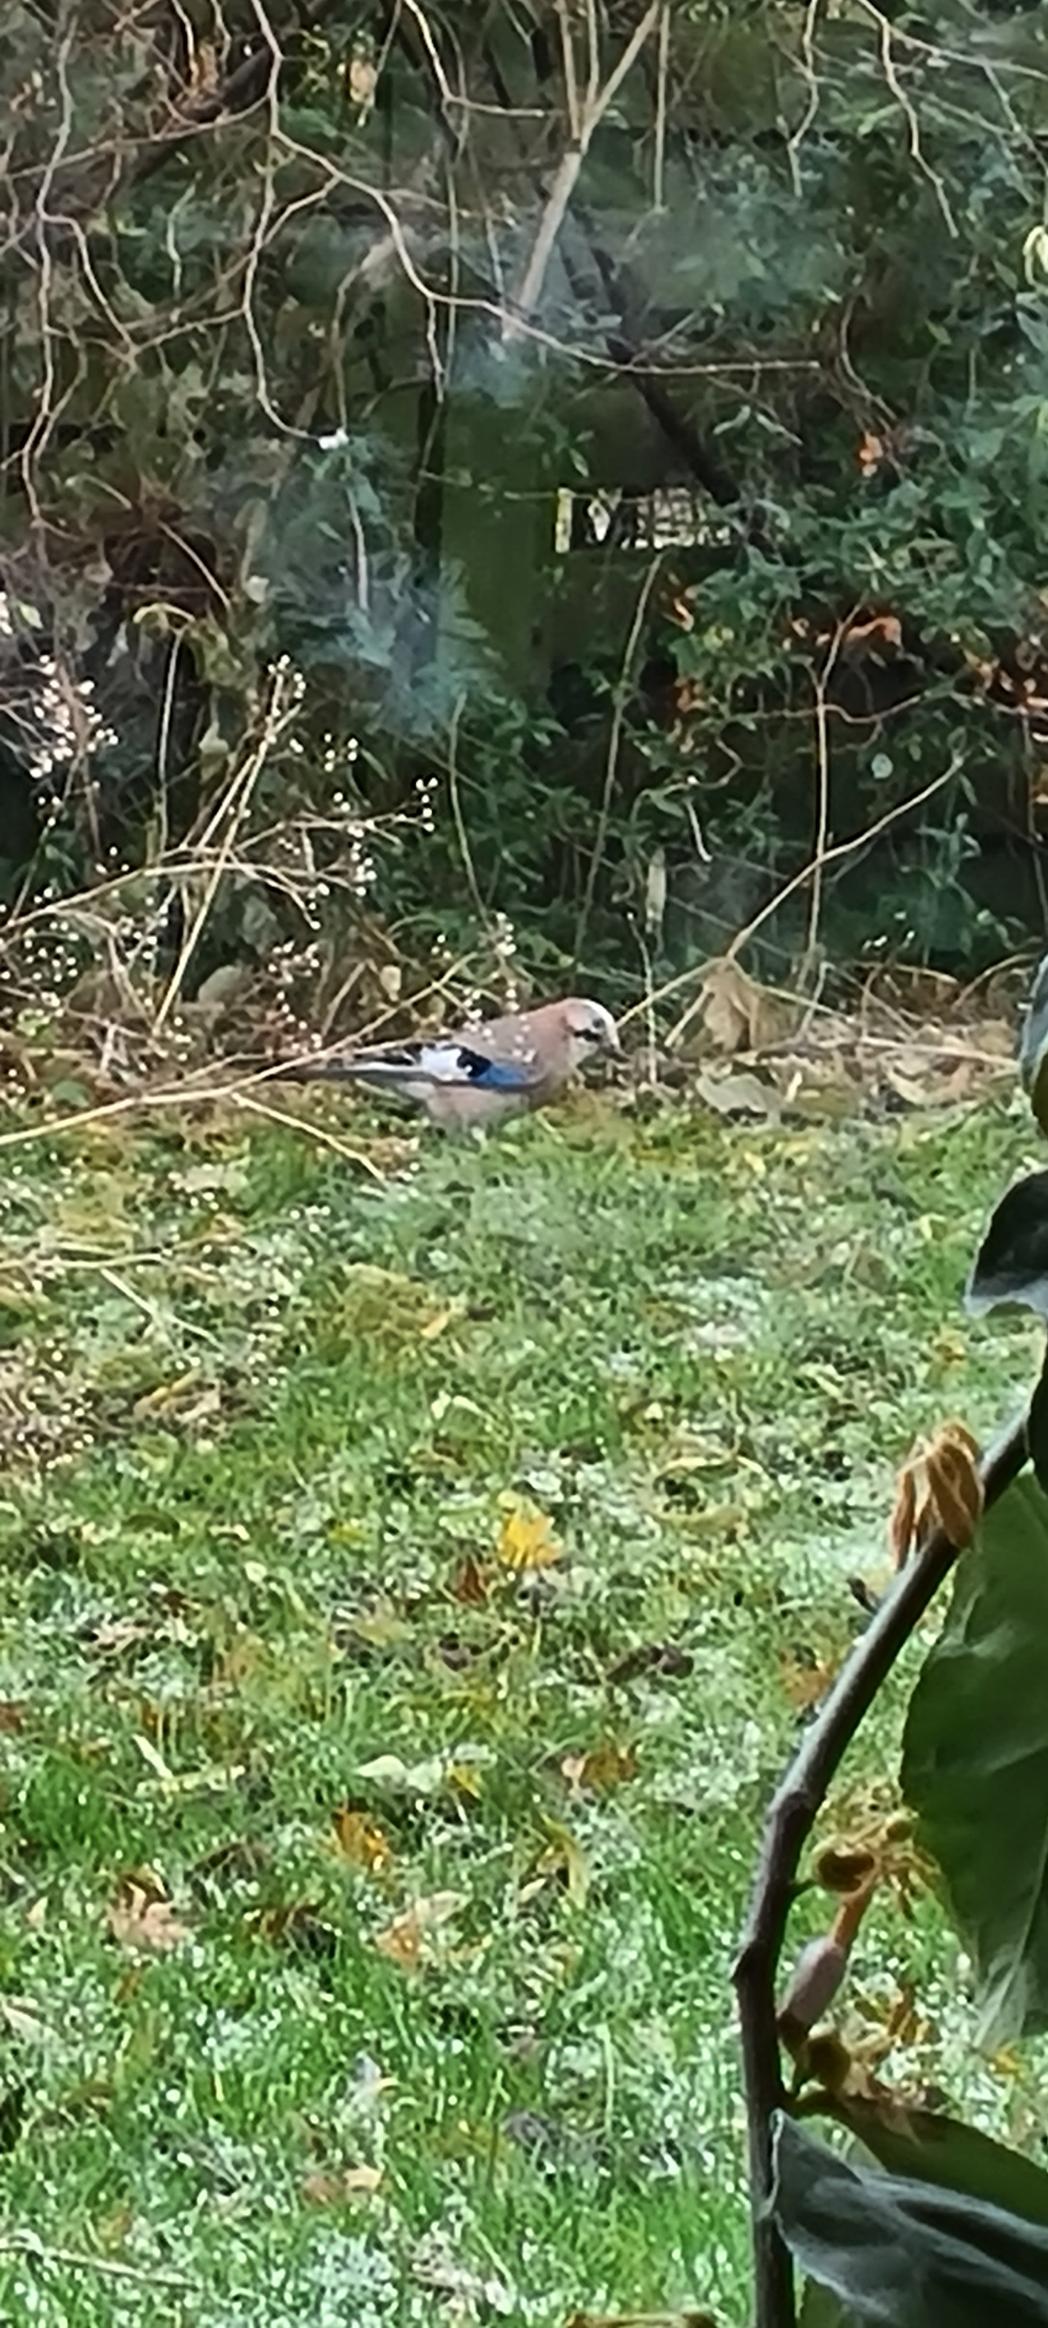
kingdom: Animalia
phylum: Chordata
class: Aves
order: Passeriformes
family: Corvidae
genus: Garrulus
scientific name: Garrulus glandarius
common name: Skovskade
